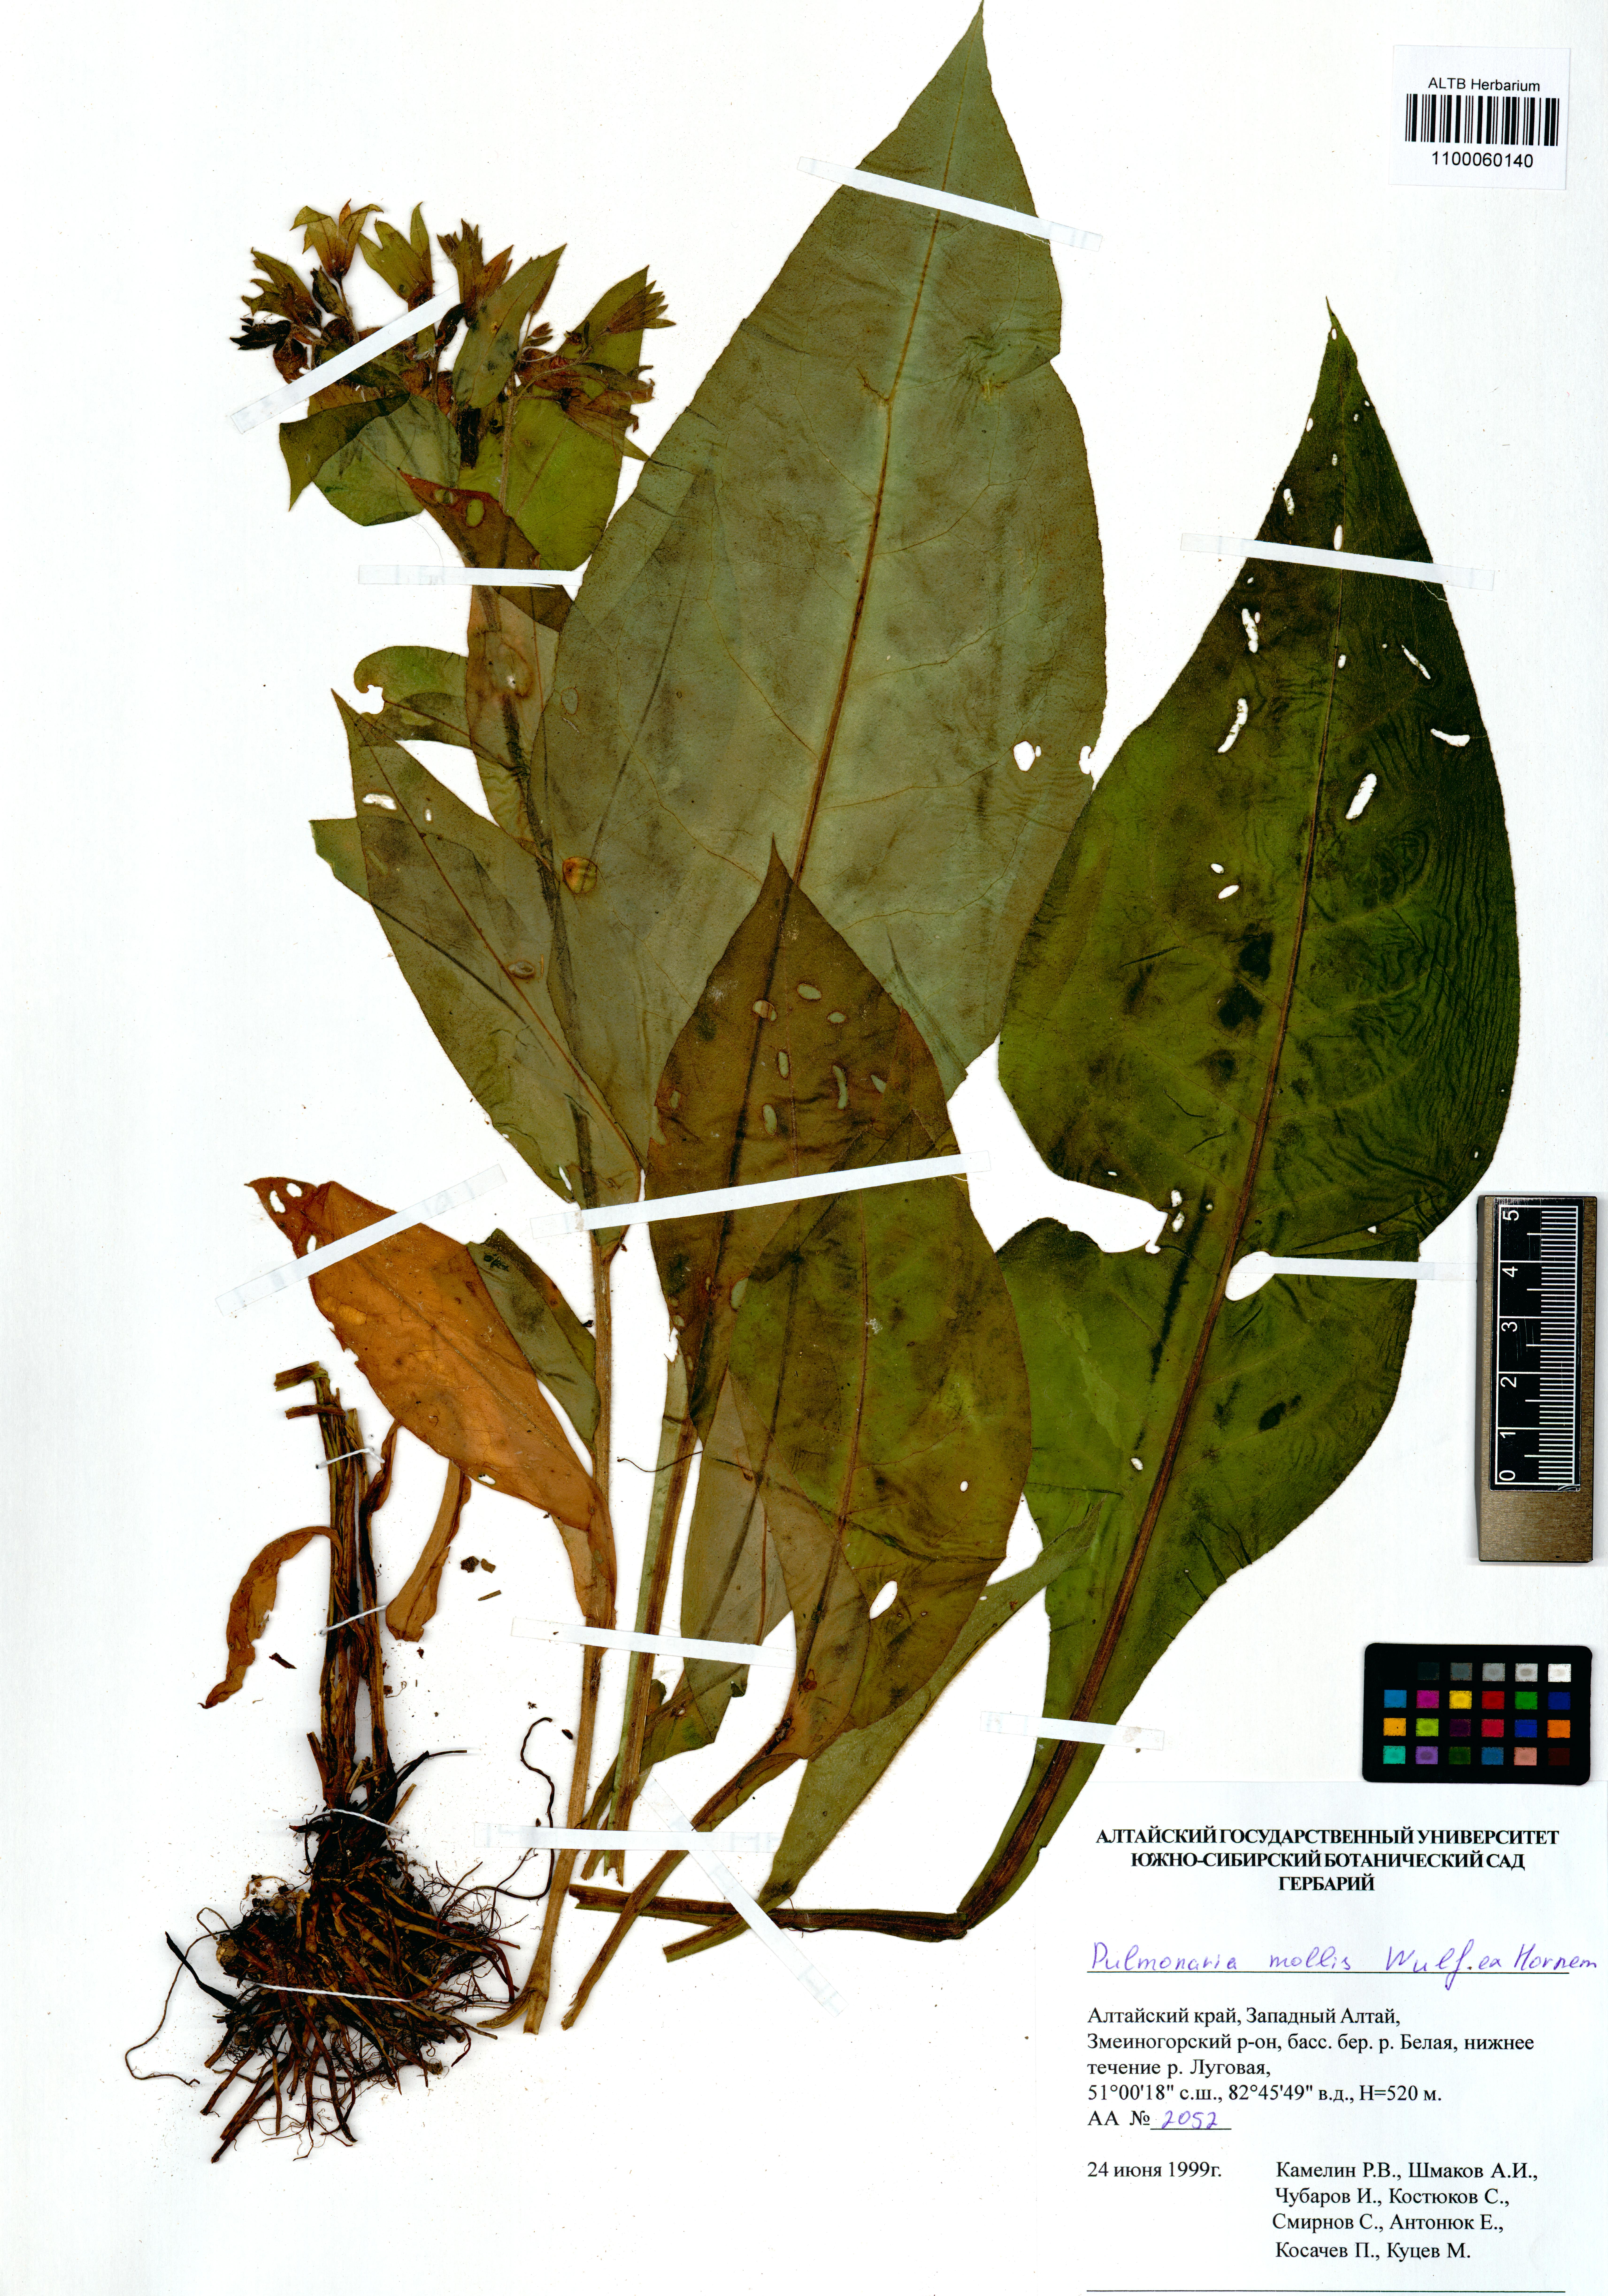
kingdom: Plantae
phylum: Tracheophyta
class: Magnoliopsida
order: Boraginales
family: Boraginaceae
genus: Pulmonaria
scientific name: Pulmonaria mollis
